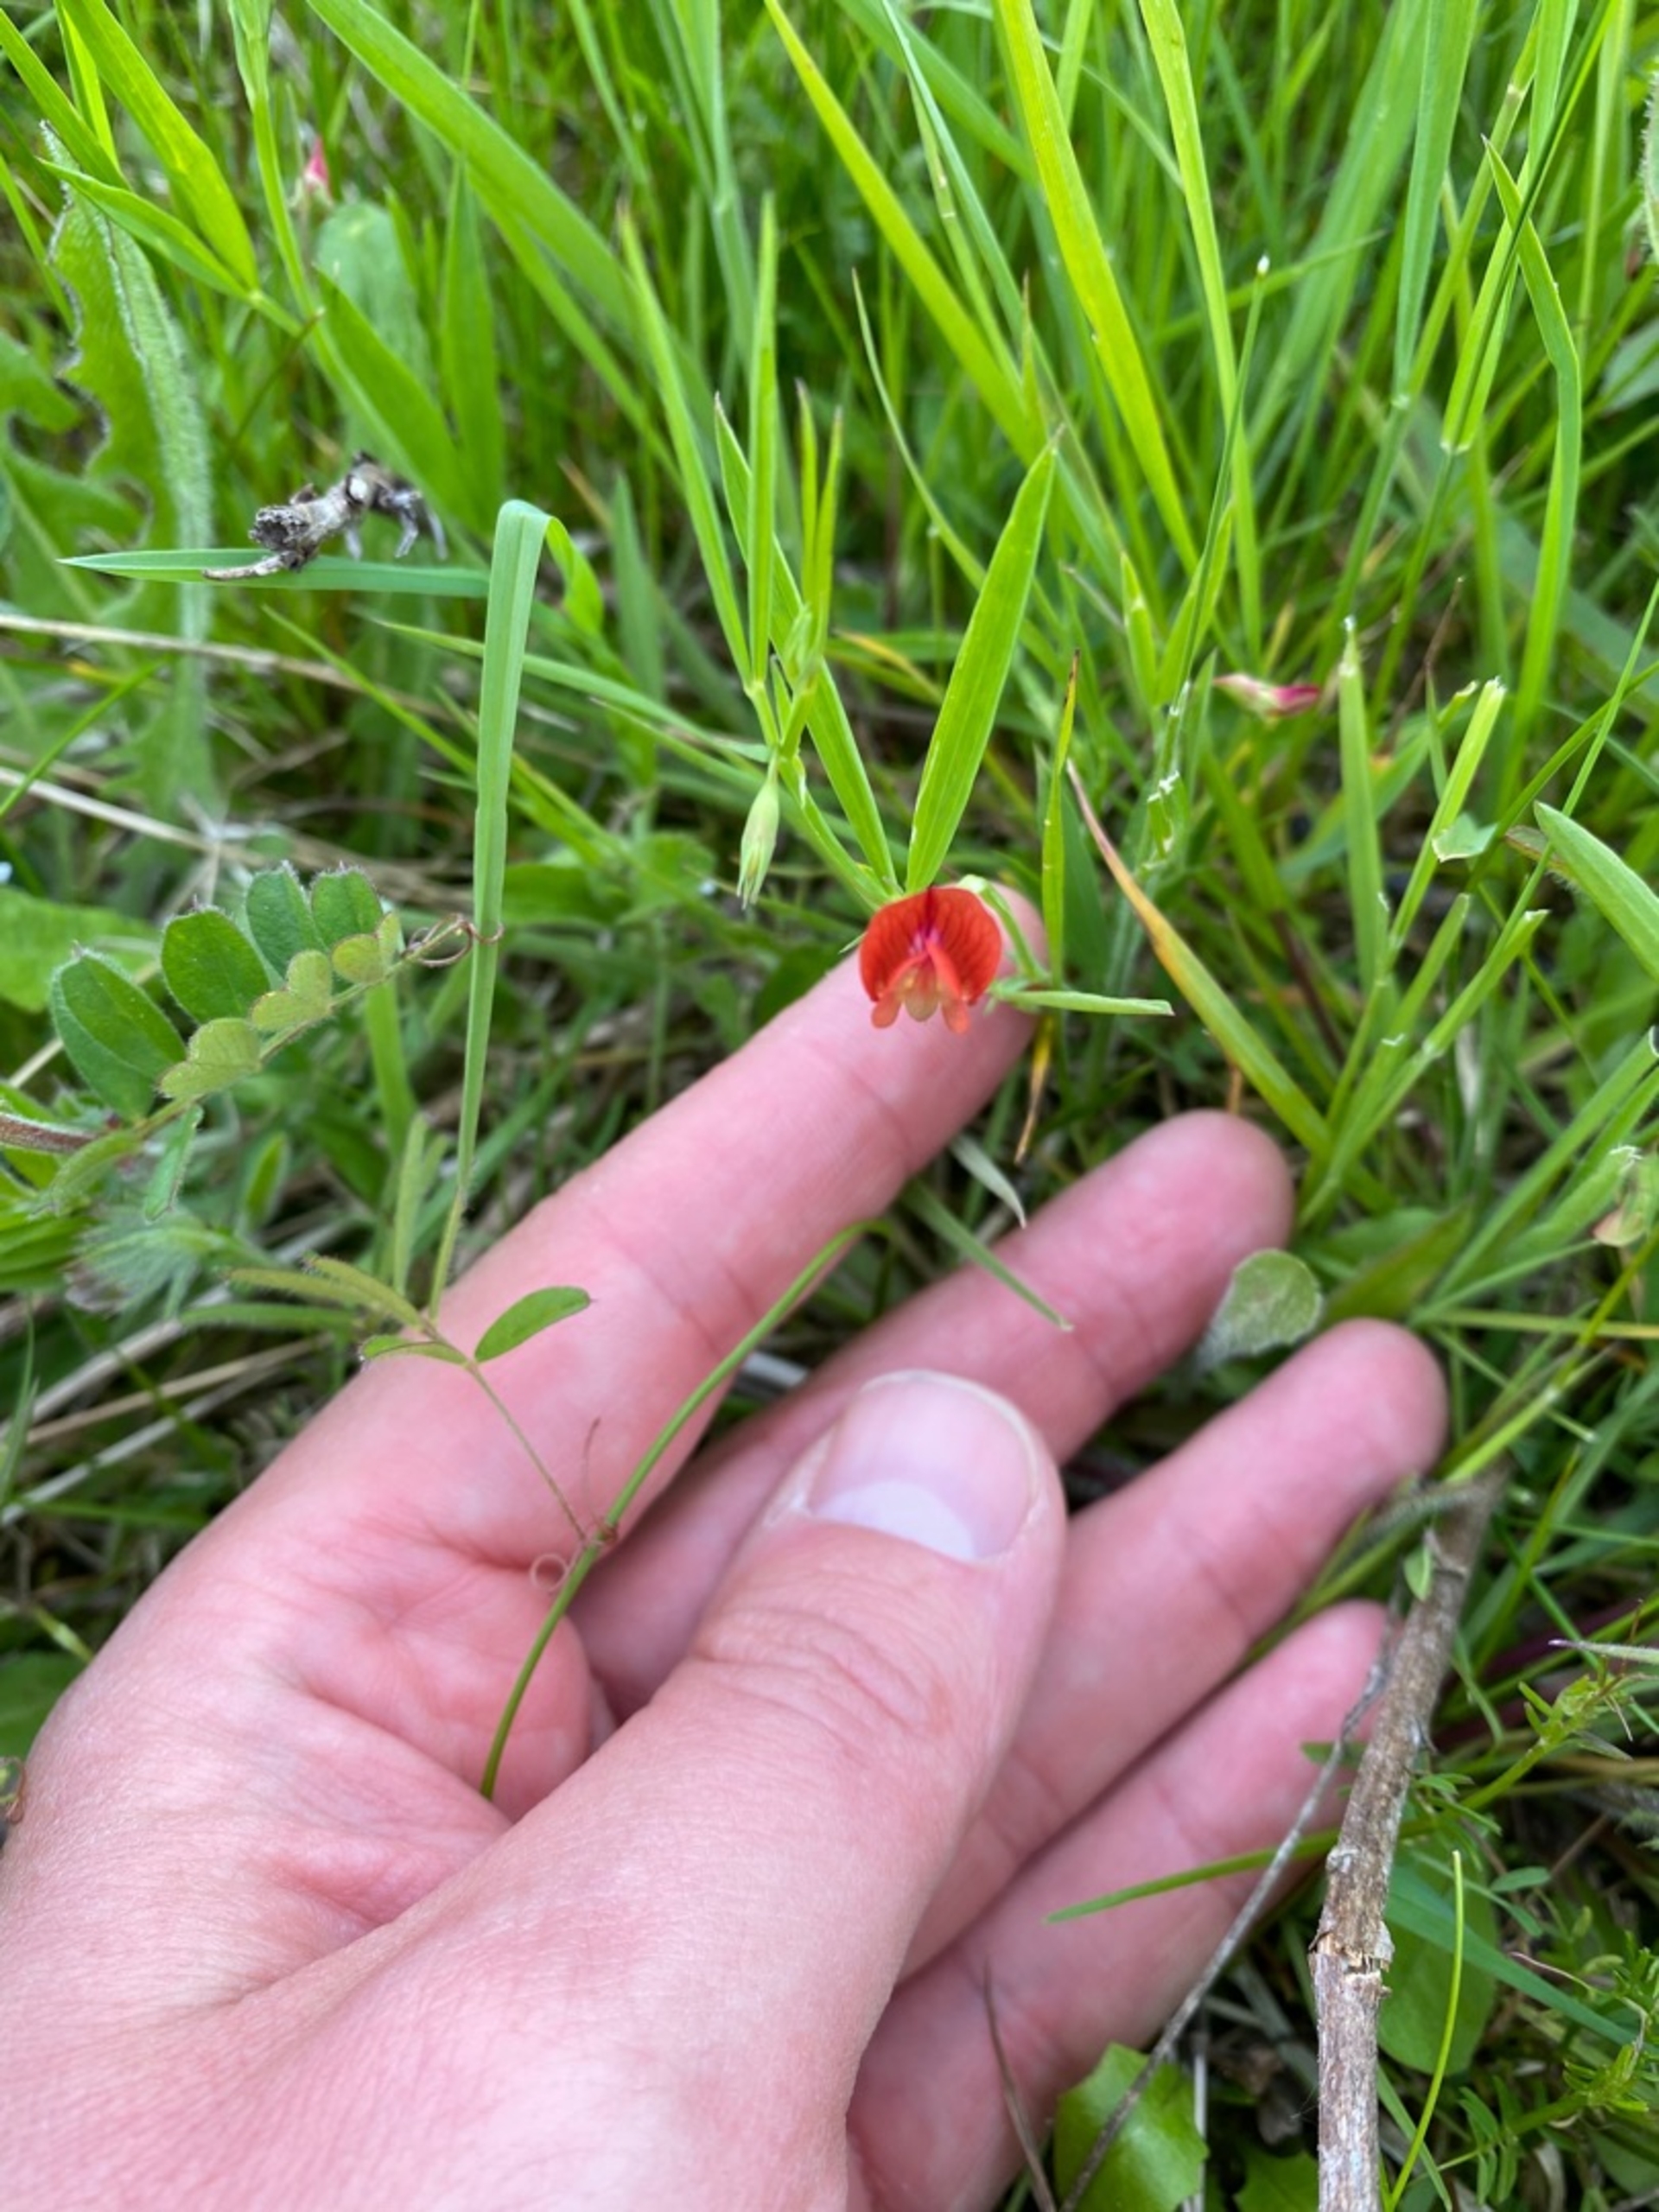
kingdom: Plantae
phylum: Tracheophyta
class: Magnoliopsida
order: Fabales
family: Fabaceae
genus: Lathyrus
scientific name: Lathyrus sphaericus
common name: Enblomstret fladbælg
